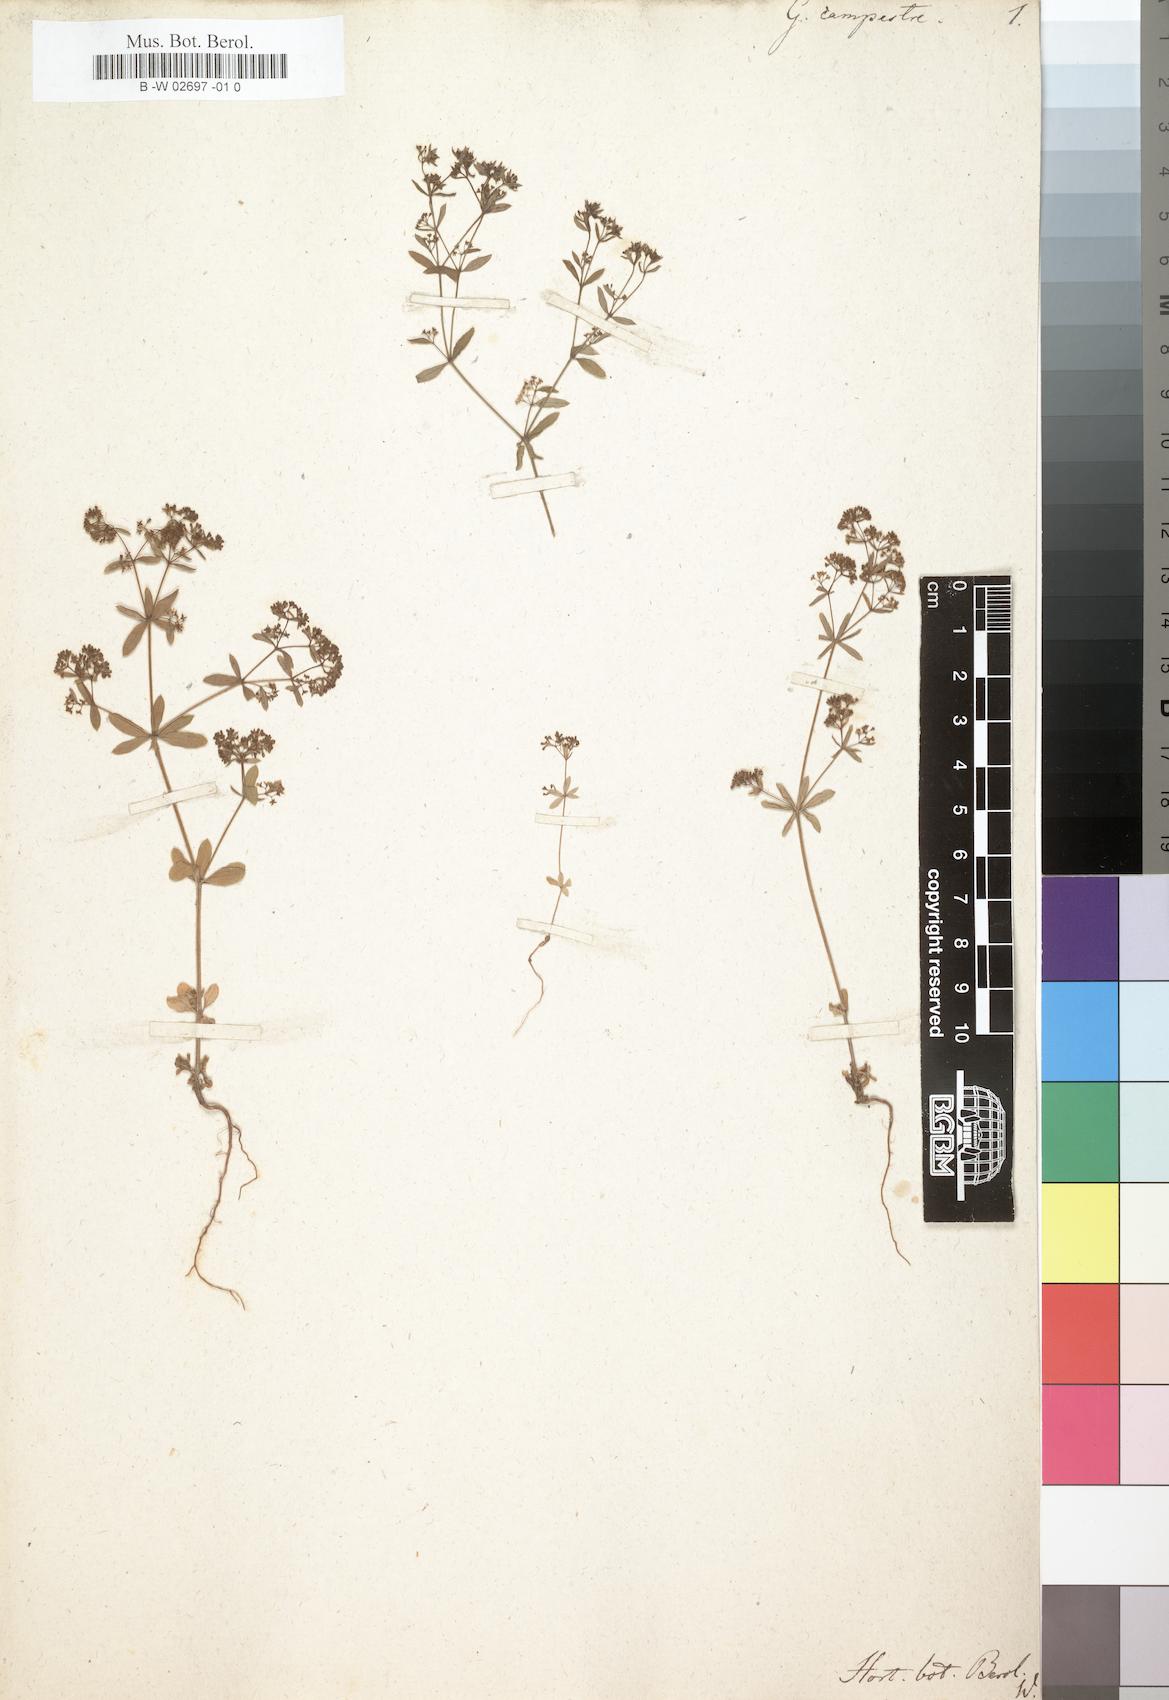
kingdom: Plantae
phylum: Tracheophyta
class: Magnoliopsida
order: Gentianales
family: Rubiaceae
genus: Galium
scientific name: Galium
